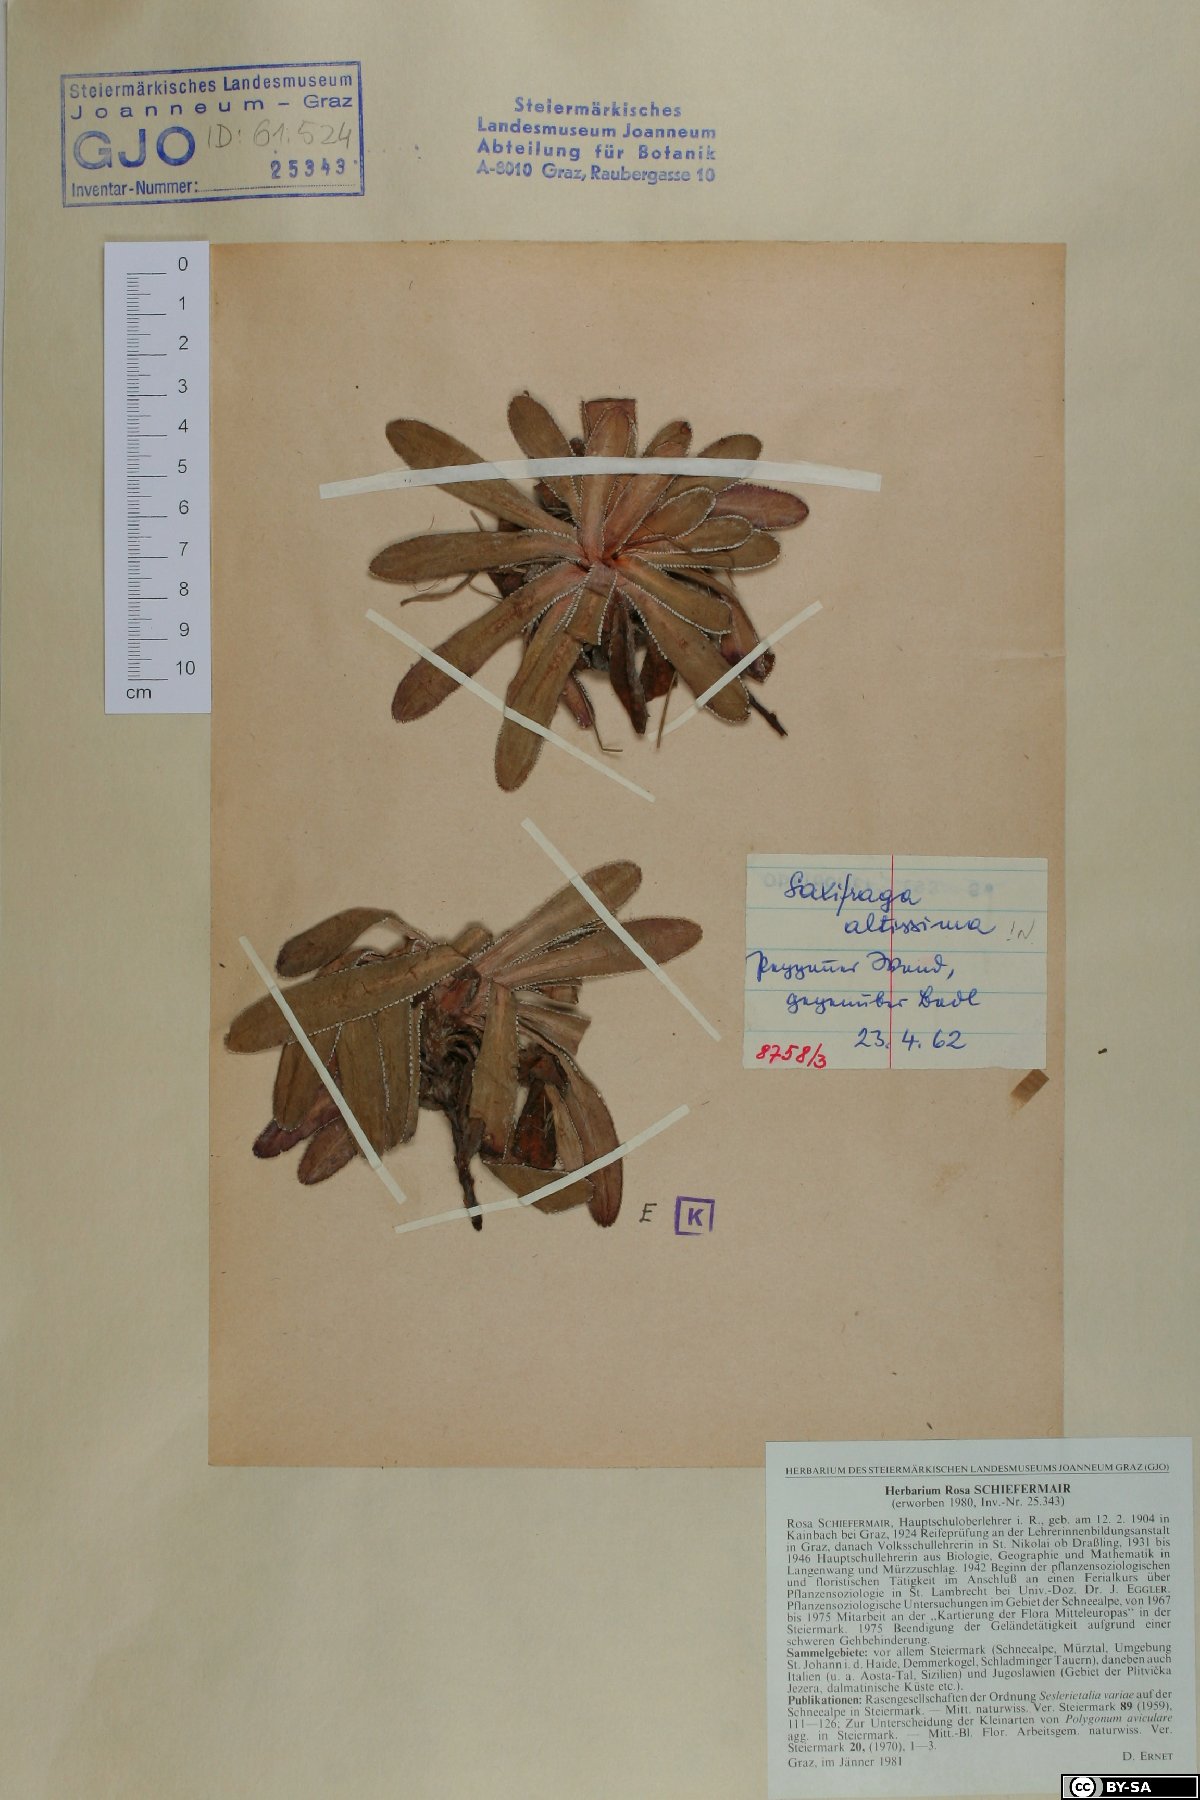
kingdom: Plantae
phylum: Tracheophyta
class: Magnoliopsida
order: Saxifragales
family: Saxifragaceae
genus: Saxifraga
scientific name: Saxifraga hostii
